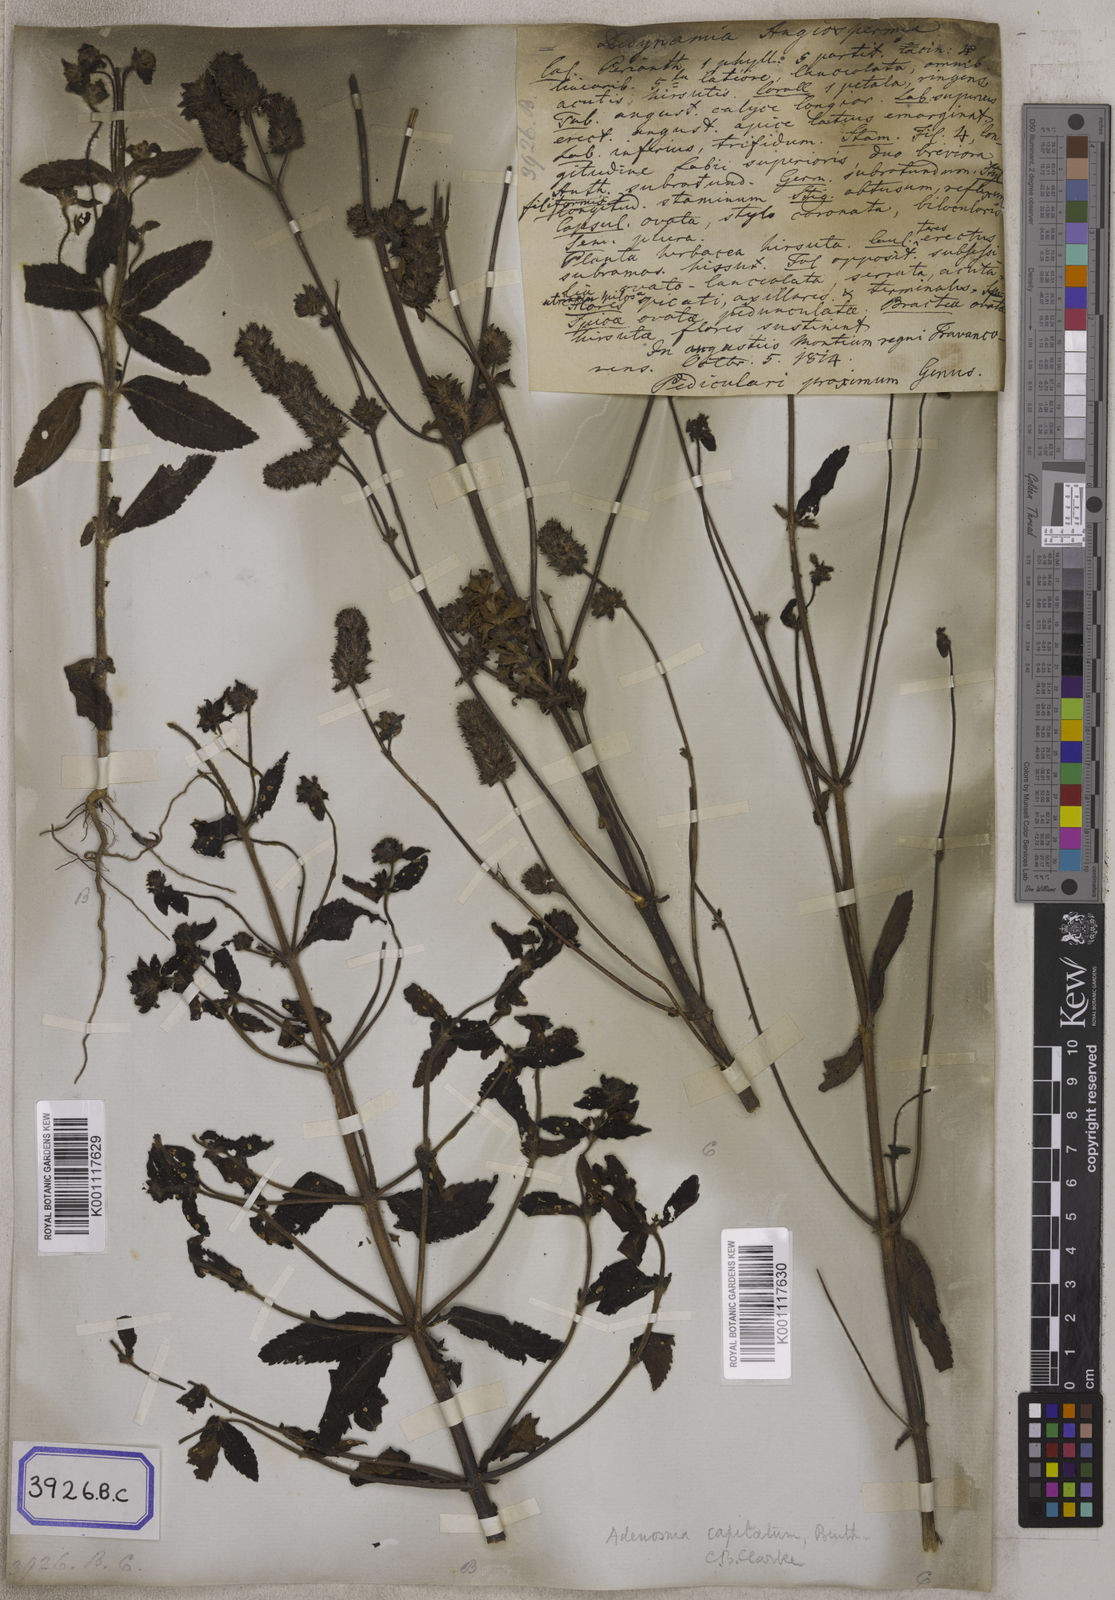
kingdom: Plantae
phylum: Tracheophyta
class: Magnoliopsida
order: Lamiales
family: Plantaginaceae
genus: Stemodia
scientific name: Stemodia
